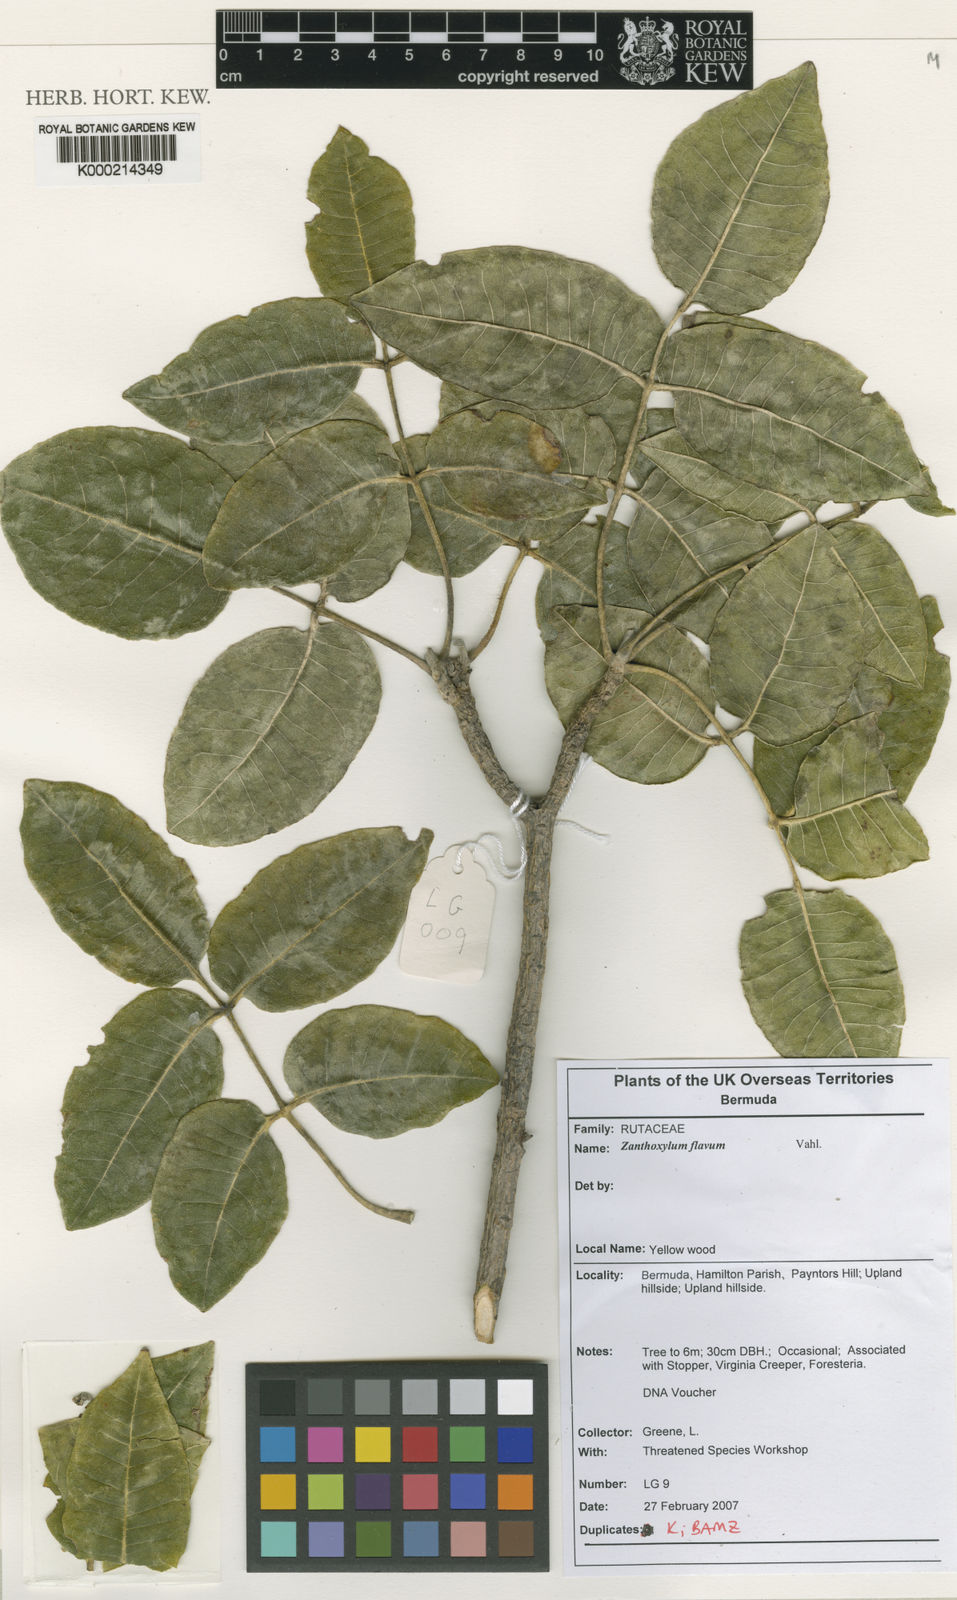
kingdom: Plantae
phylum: Tracheophyta
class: Magnoliopsida
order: Sapindales
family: Rutaceae
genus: Zanthoxylum
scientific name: Zanthoxylum flavum
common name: West indian satinwood
